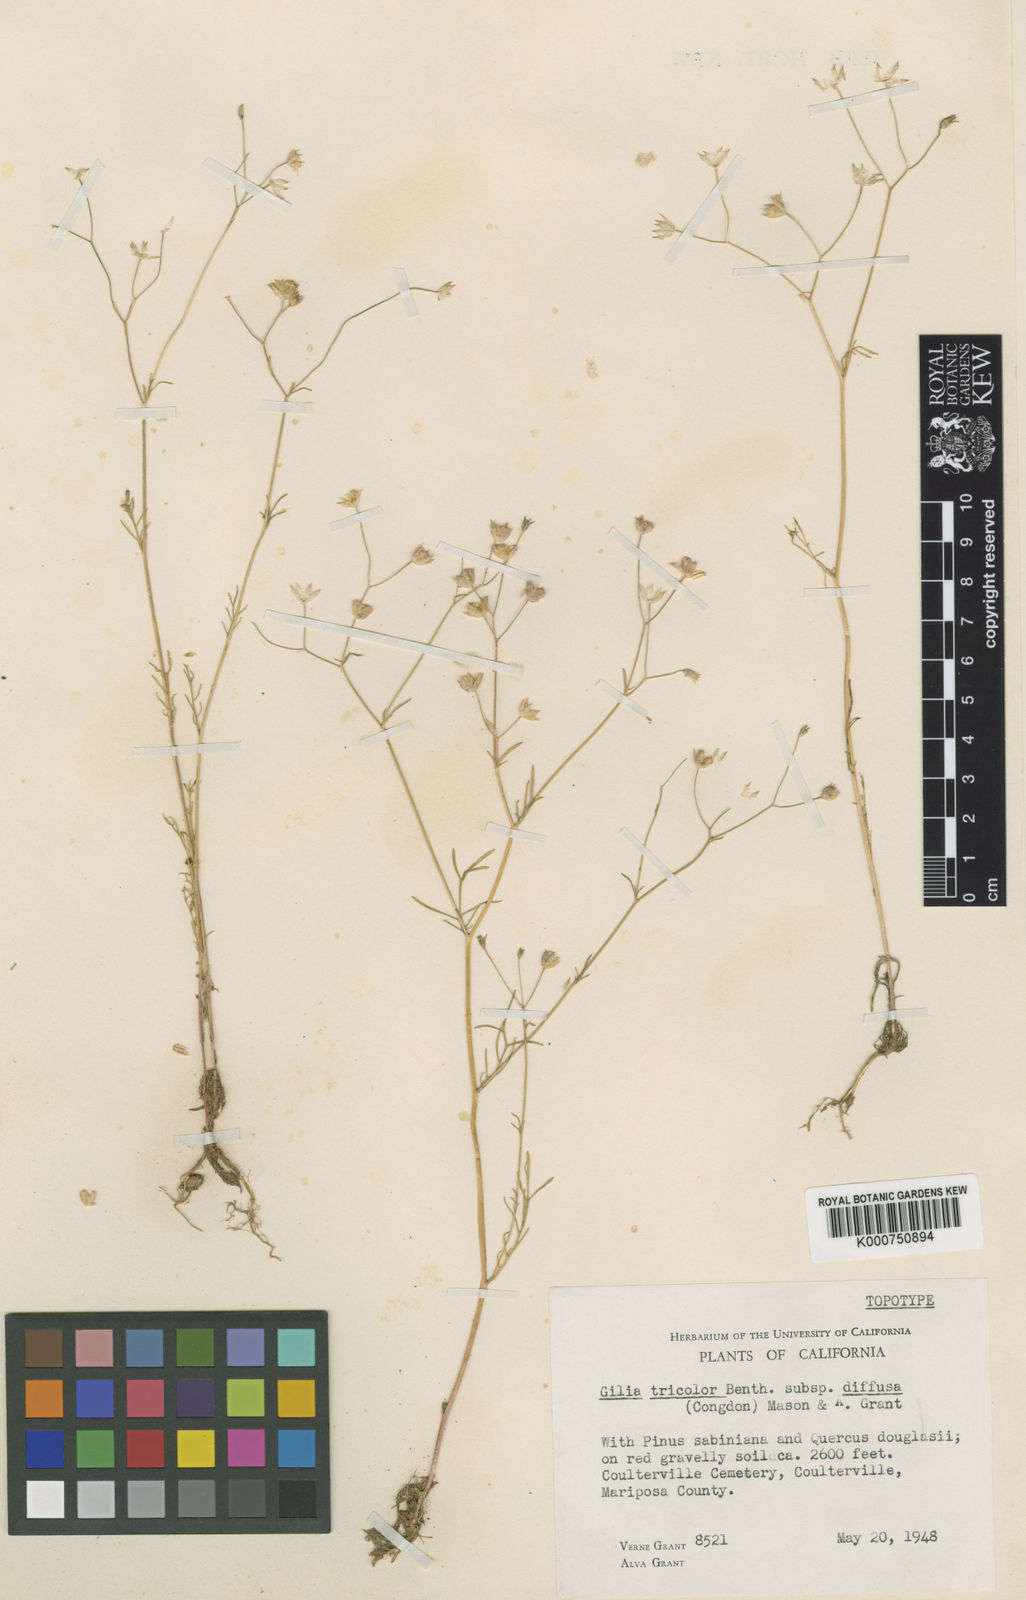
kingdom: Plantae
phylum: Tracheophyta
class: Magnoliopsida
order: Ericales
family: Polemoniaceae
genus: Gilia
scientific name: Gilia tricolor
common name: Bird's-eyes
